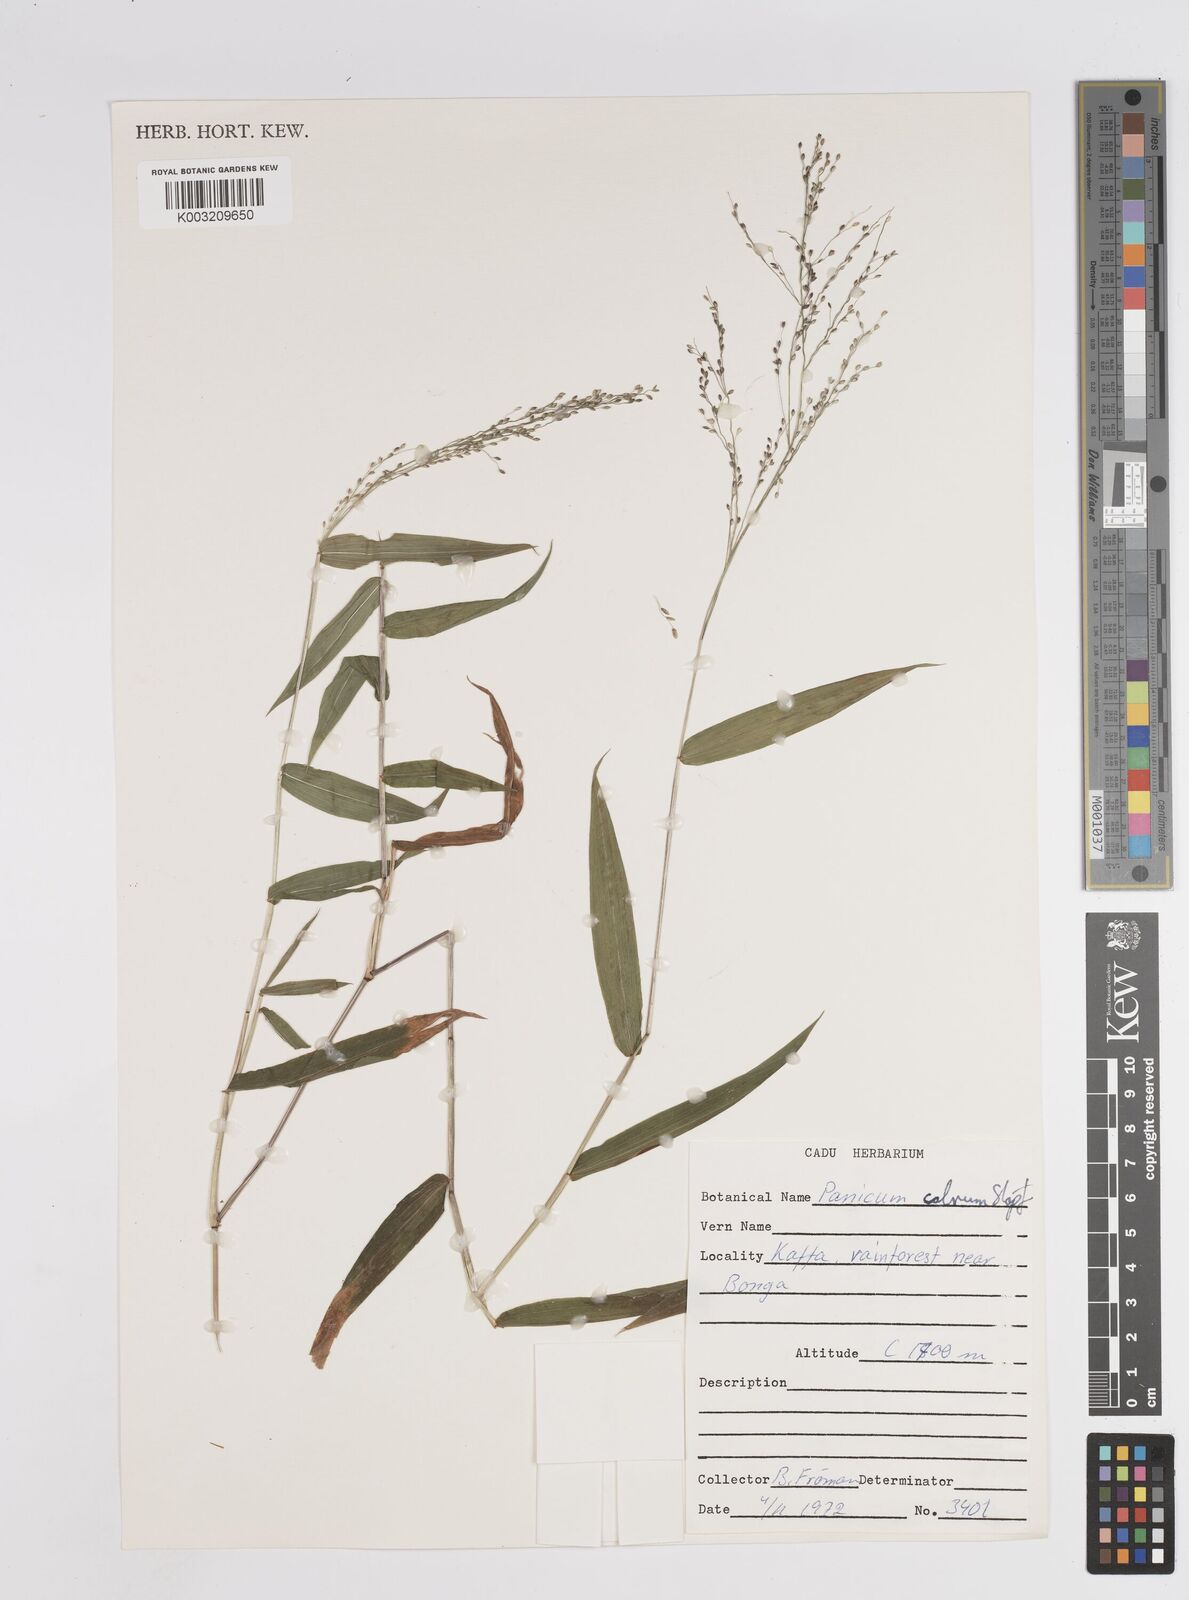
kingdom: Plantae
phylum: Tracheophyta
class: Liliopsida
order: Poales
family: Poaceae
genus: Panicum
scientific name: Panicum calvum
